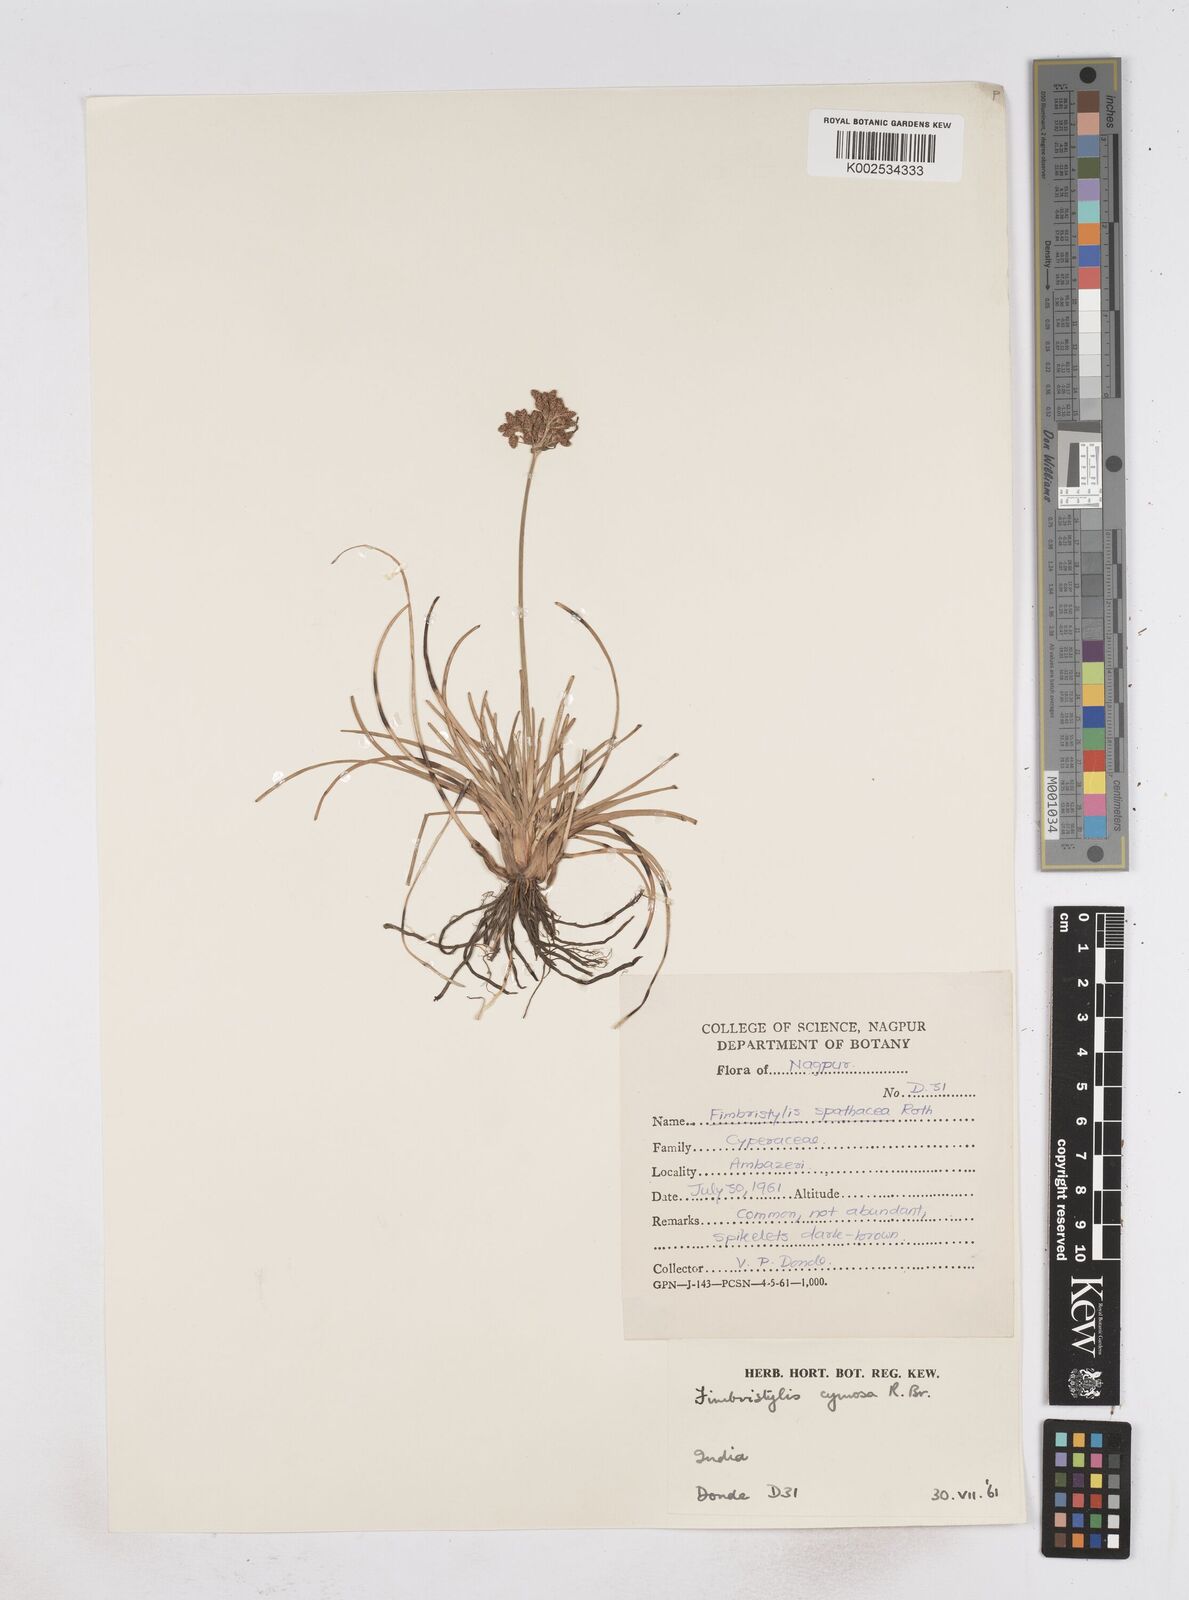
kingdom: Plantae
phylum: Tracheophyta
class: Liliopsida
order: Poales
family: Cyperaceae
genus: Fimbristylis
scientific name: Fimbristylis cymosa
